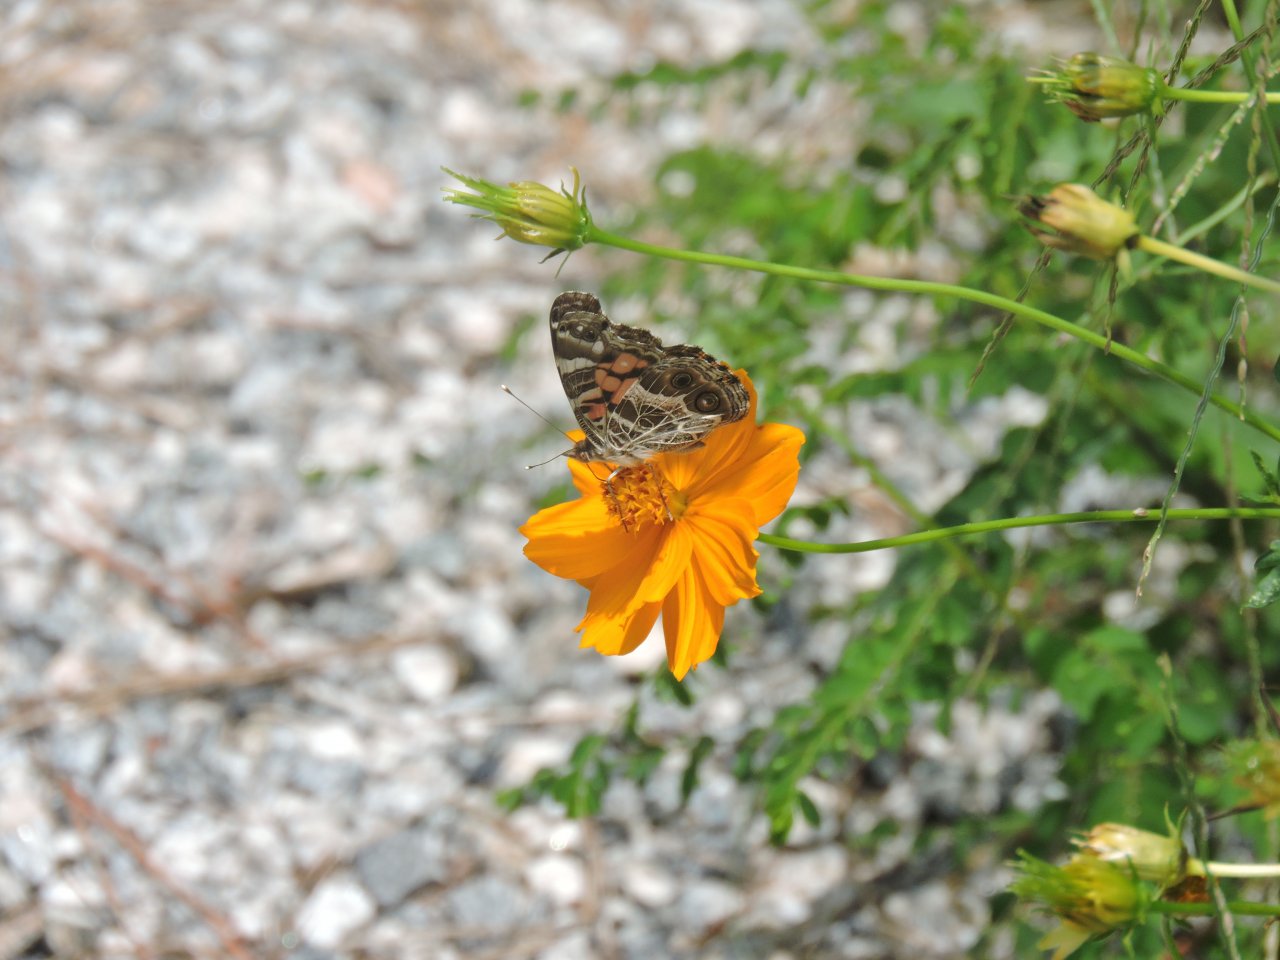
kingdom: Animalia
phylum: Arthropoda
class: Insecta
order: Lepidoptera
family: Nymphalidae
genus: Vanessa
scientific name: Vanessa virginiensis
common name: American Lady
